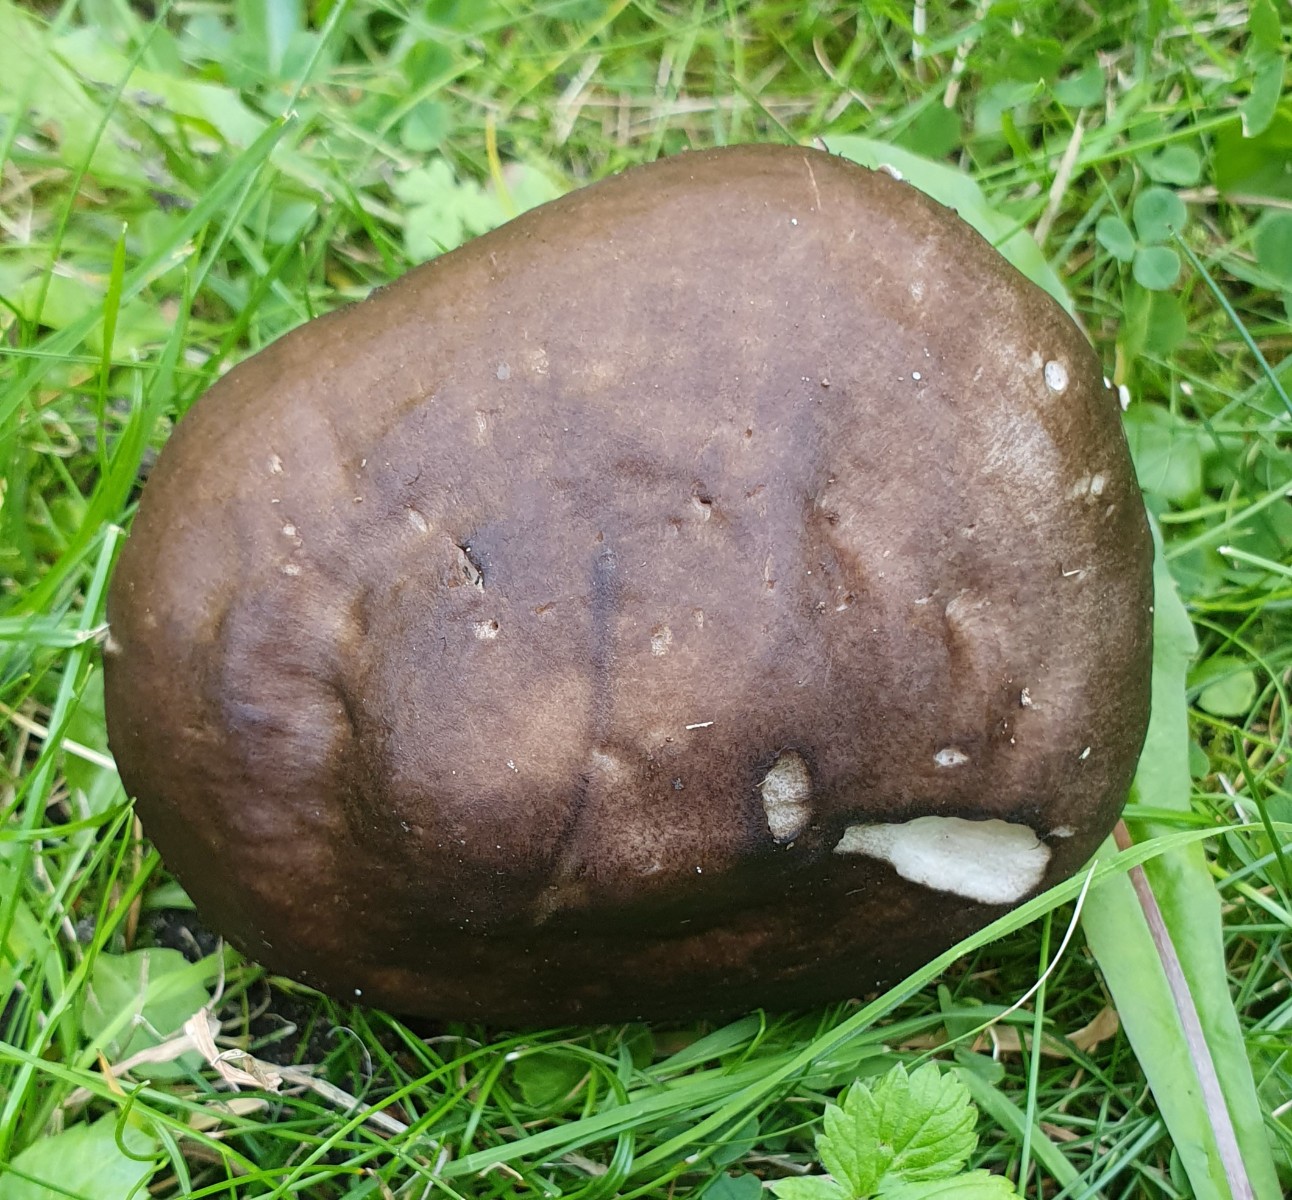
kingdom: Fungi
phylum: Basidiomycota
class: Agaricomycetes
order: Agaricales
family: Pluteaceae
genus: Pluteus
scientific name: Pluteus cervinus
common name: sodfarvet skærmhat
